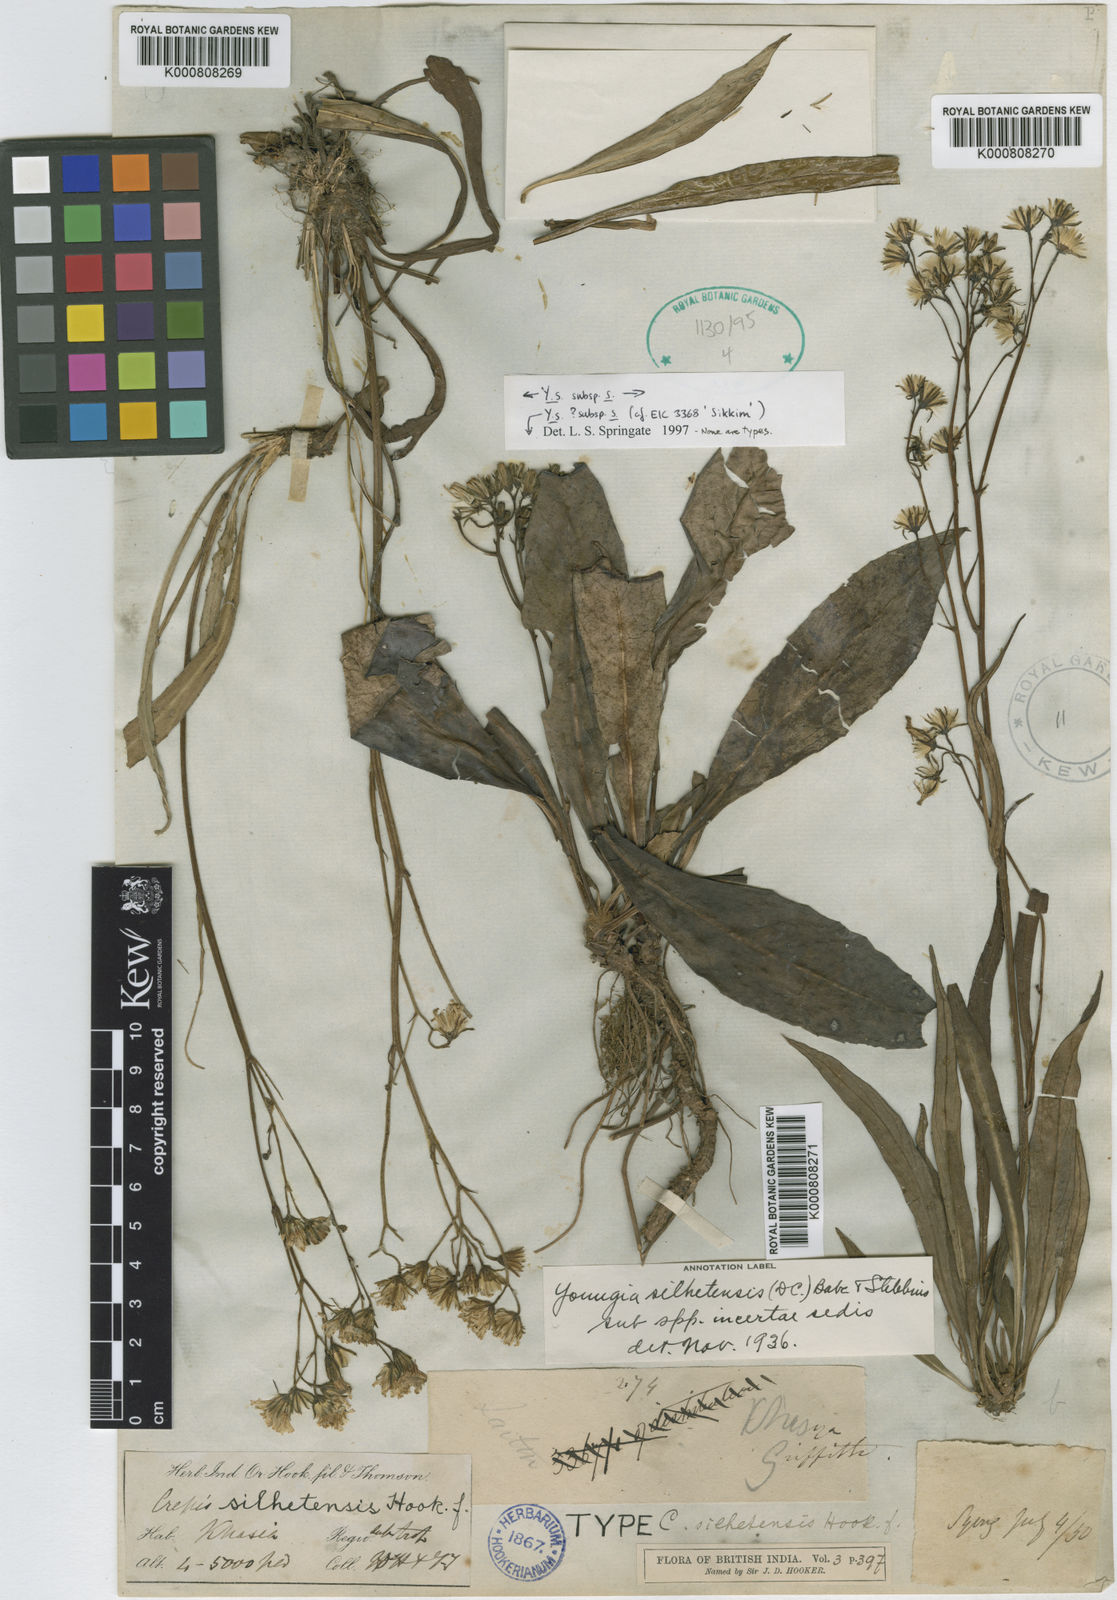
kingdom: Plantae
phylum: Tracheophyta
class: Magnoliopsida
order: Asterales
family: Asteraceae
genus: Faberia
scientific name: Faberia silhetensis
